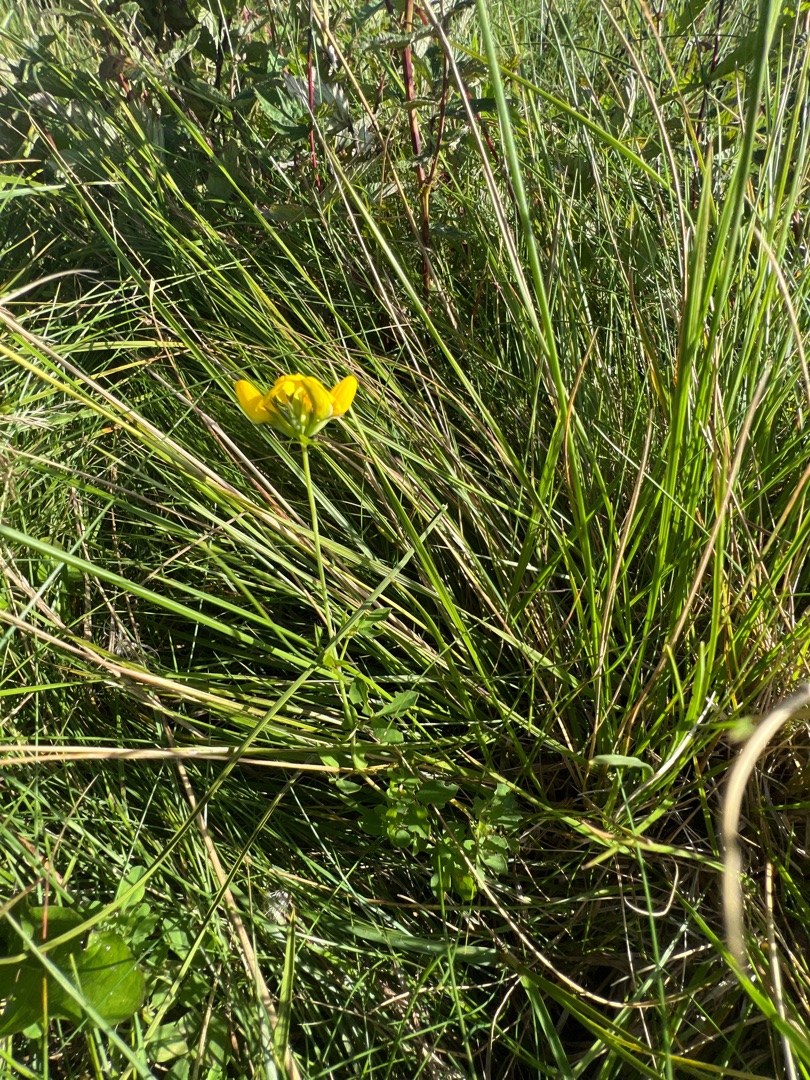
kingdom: Plantae
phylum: Tracheophyta
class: Magnoliopsida
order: Fabales
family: Fabaceae
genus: Lotus
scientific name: Lotus corniculatus
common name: Almindelig kællingetand
